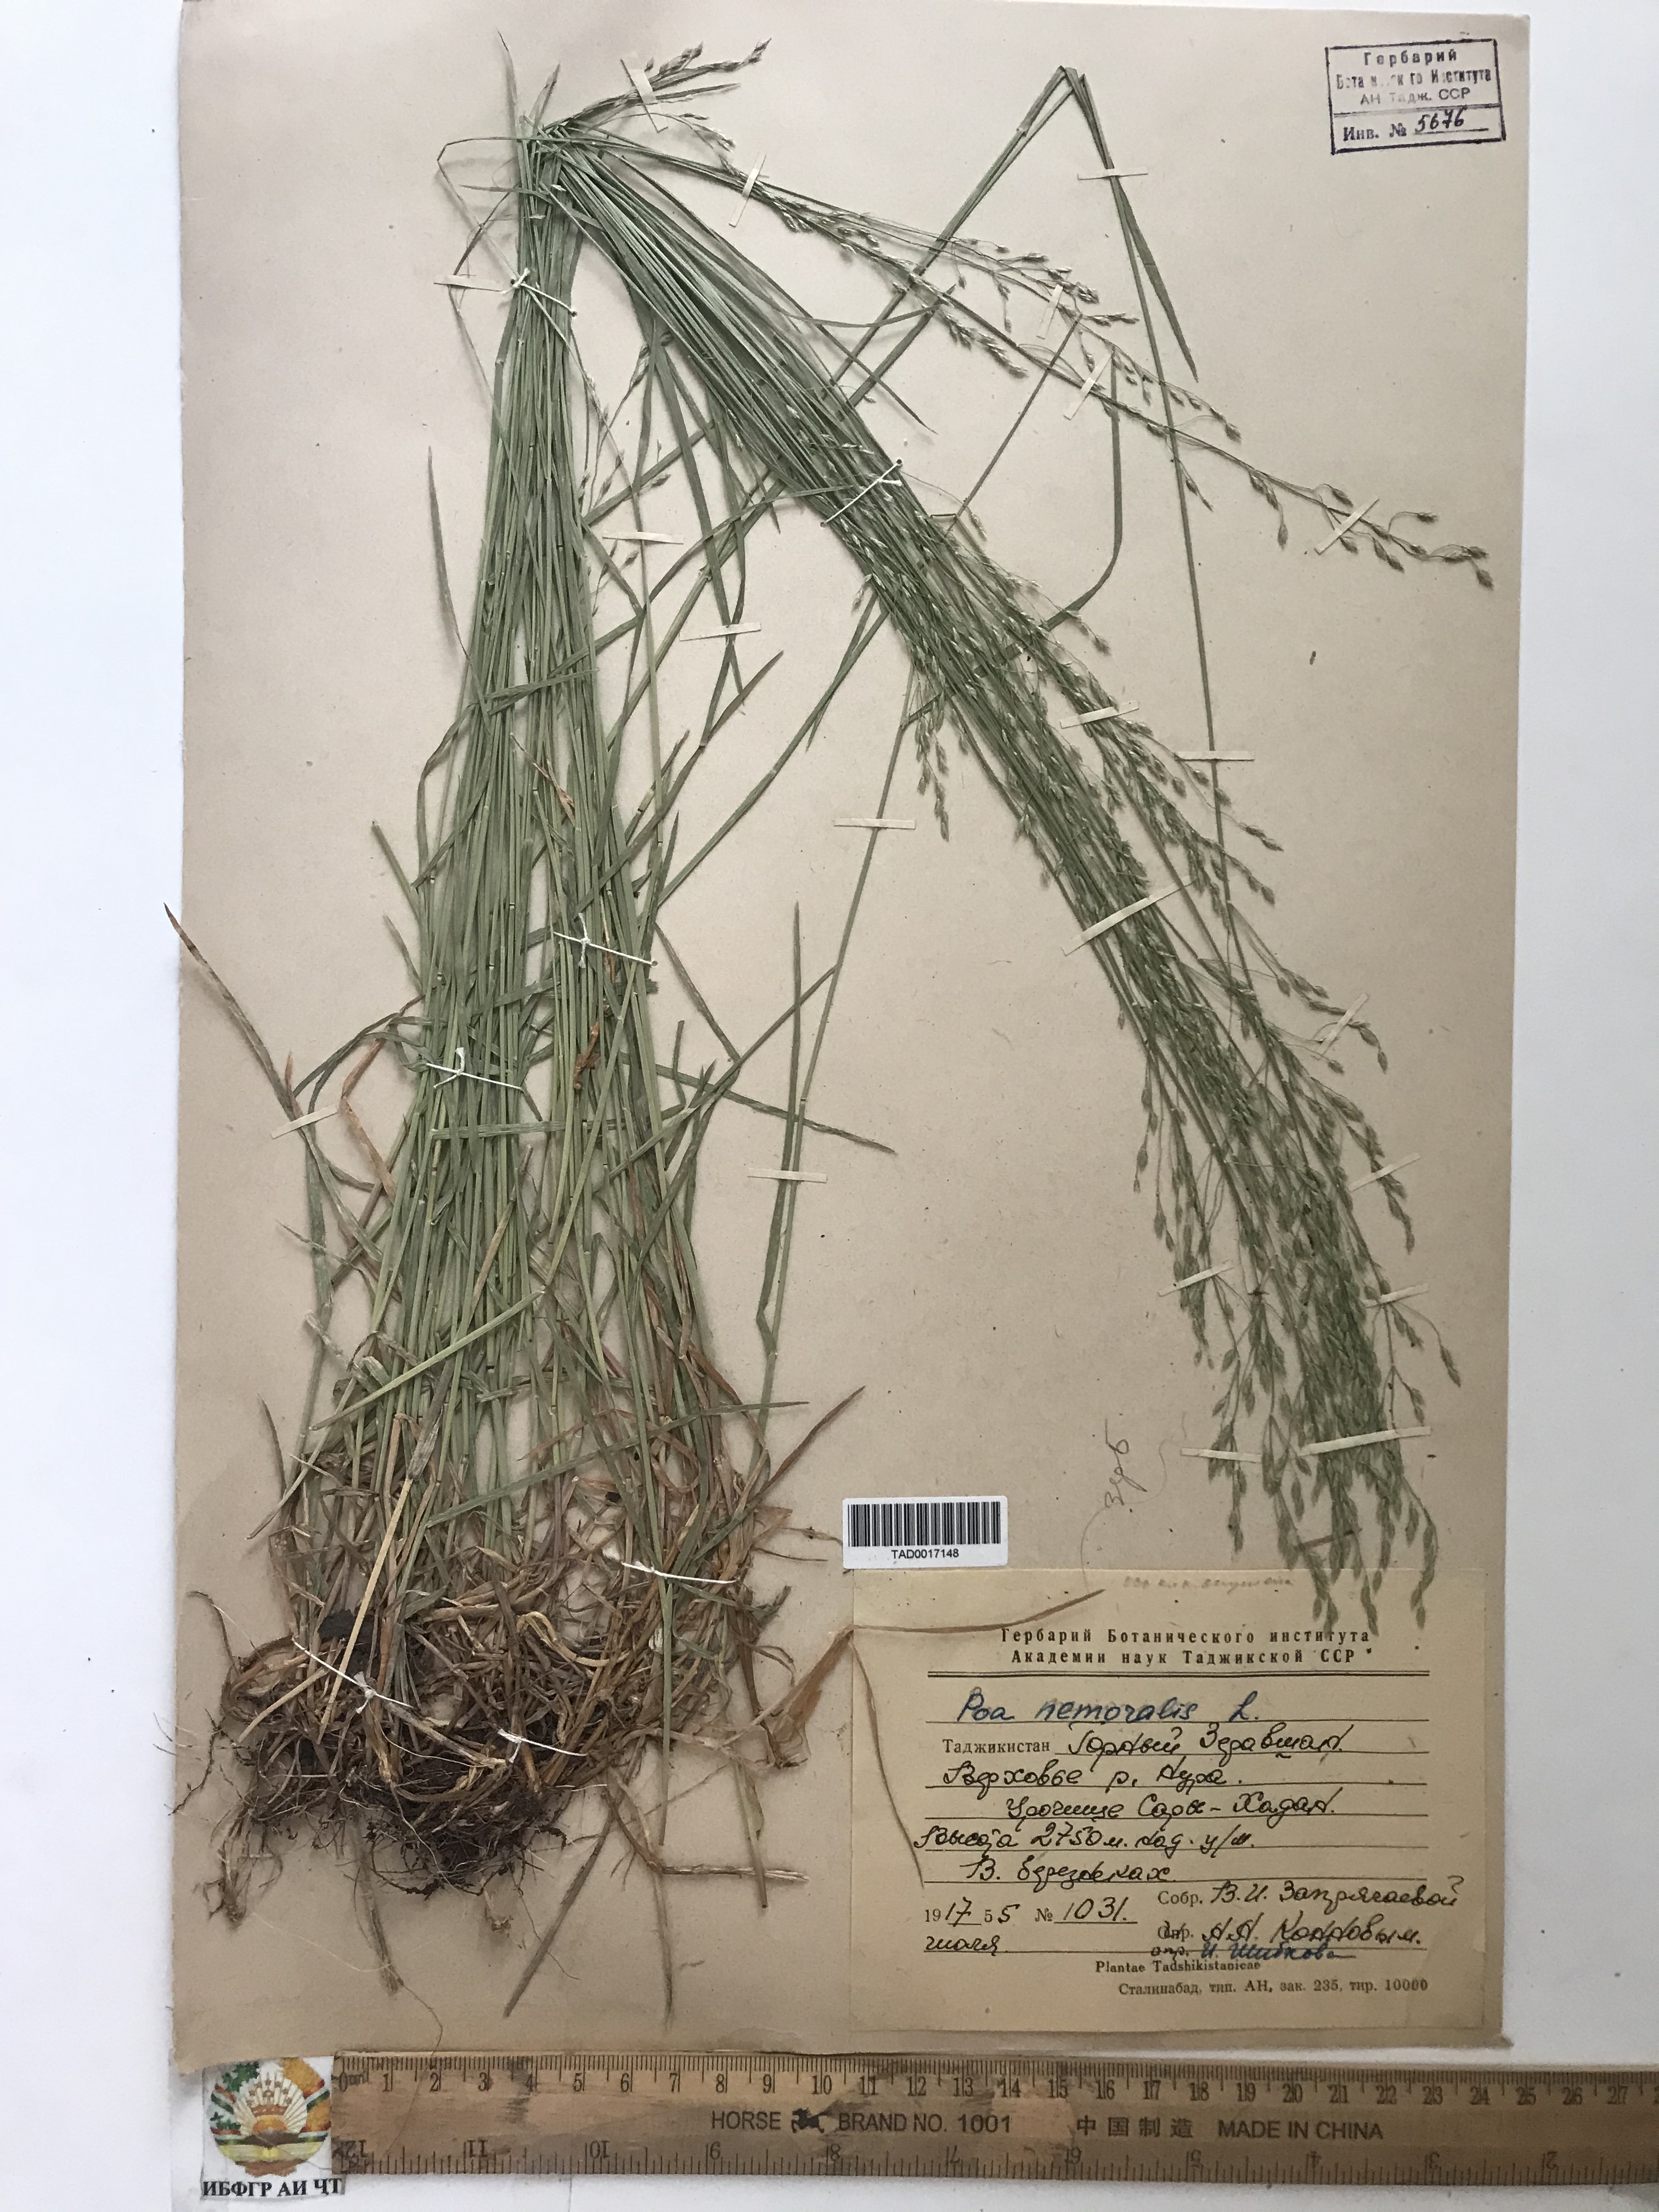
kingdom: Plantae
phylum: Tracheophyta
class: Liliopsida
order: Poales
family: Poaceae
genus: Poa
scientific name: Poa nemoralis
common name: Wood bluegrass
